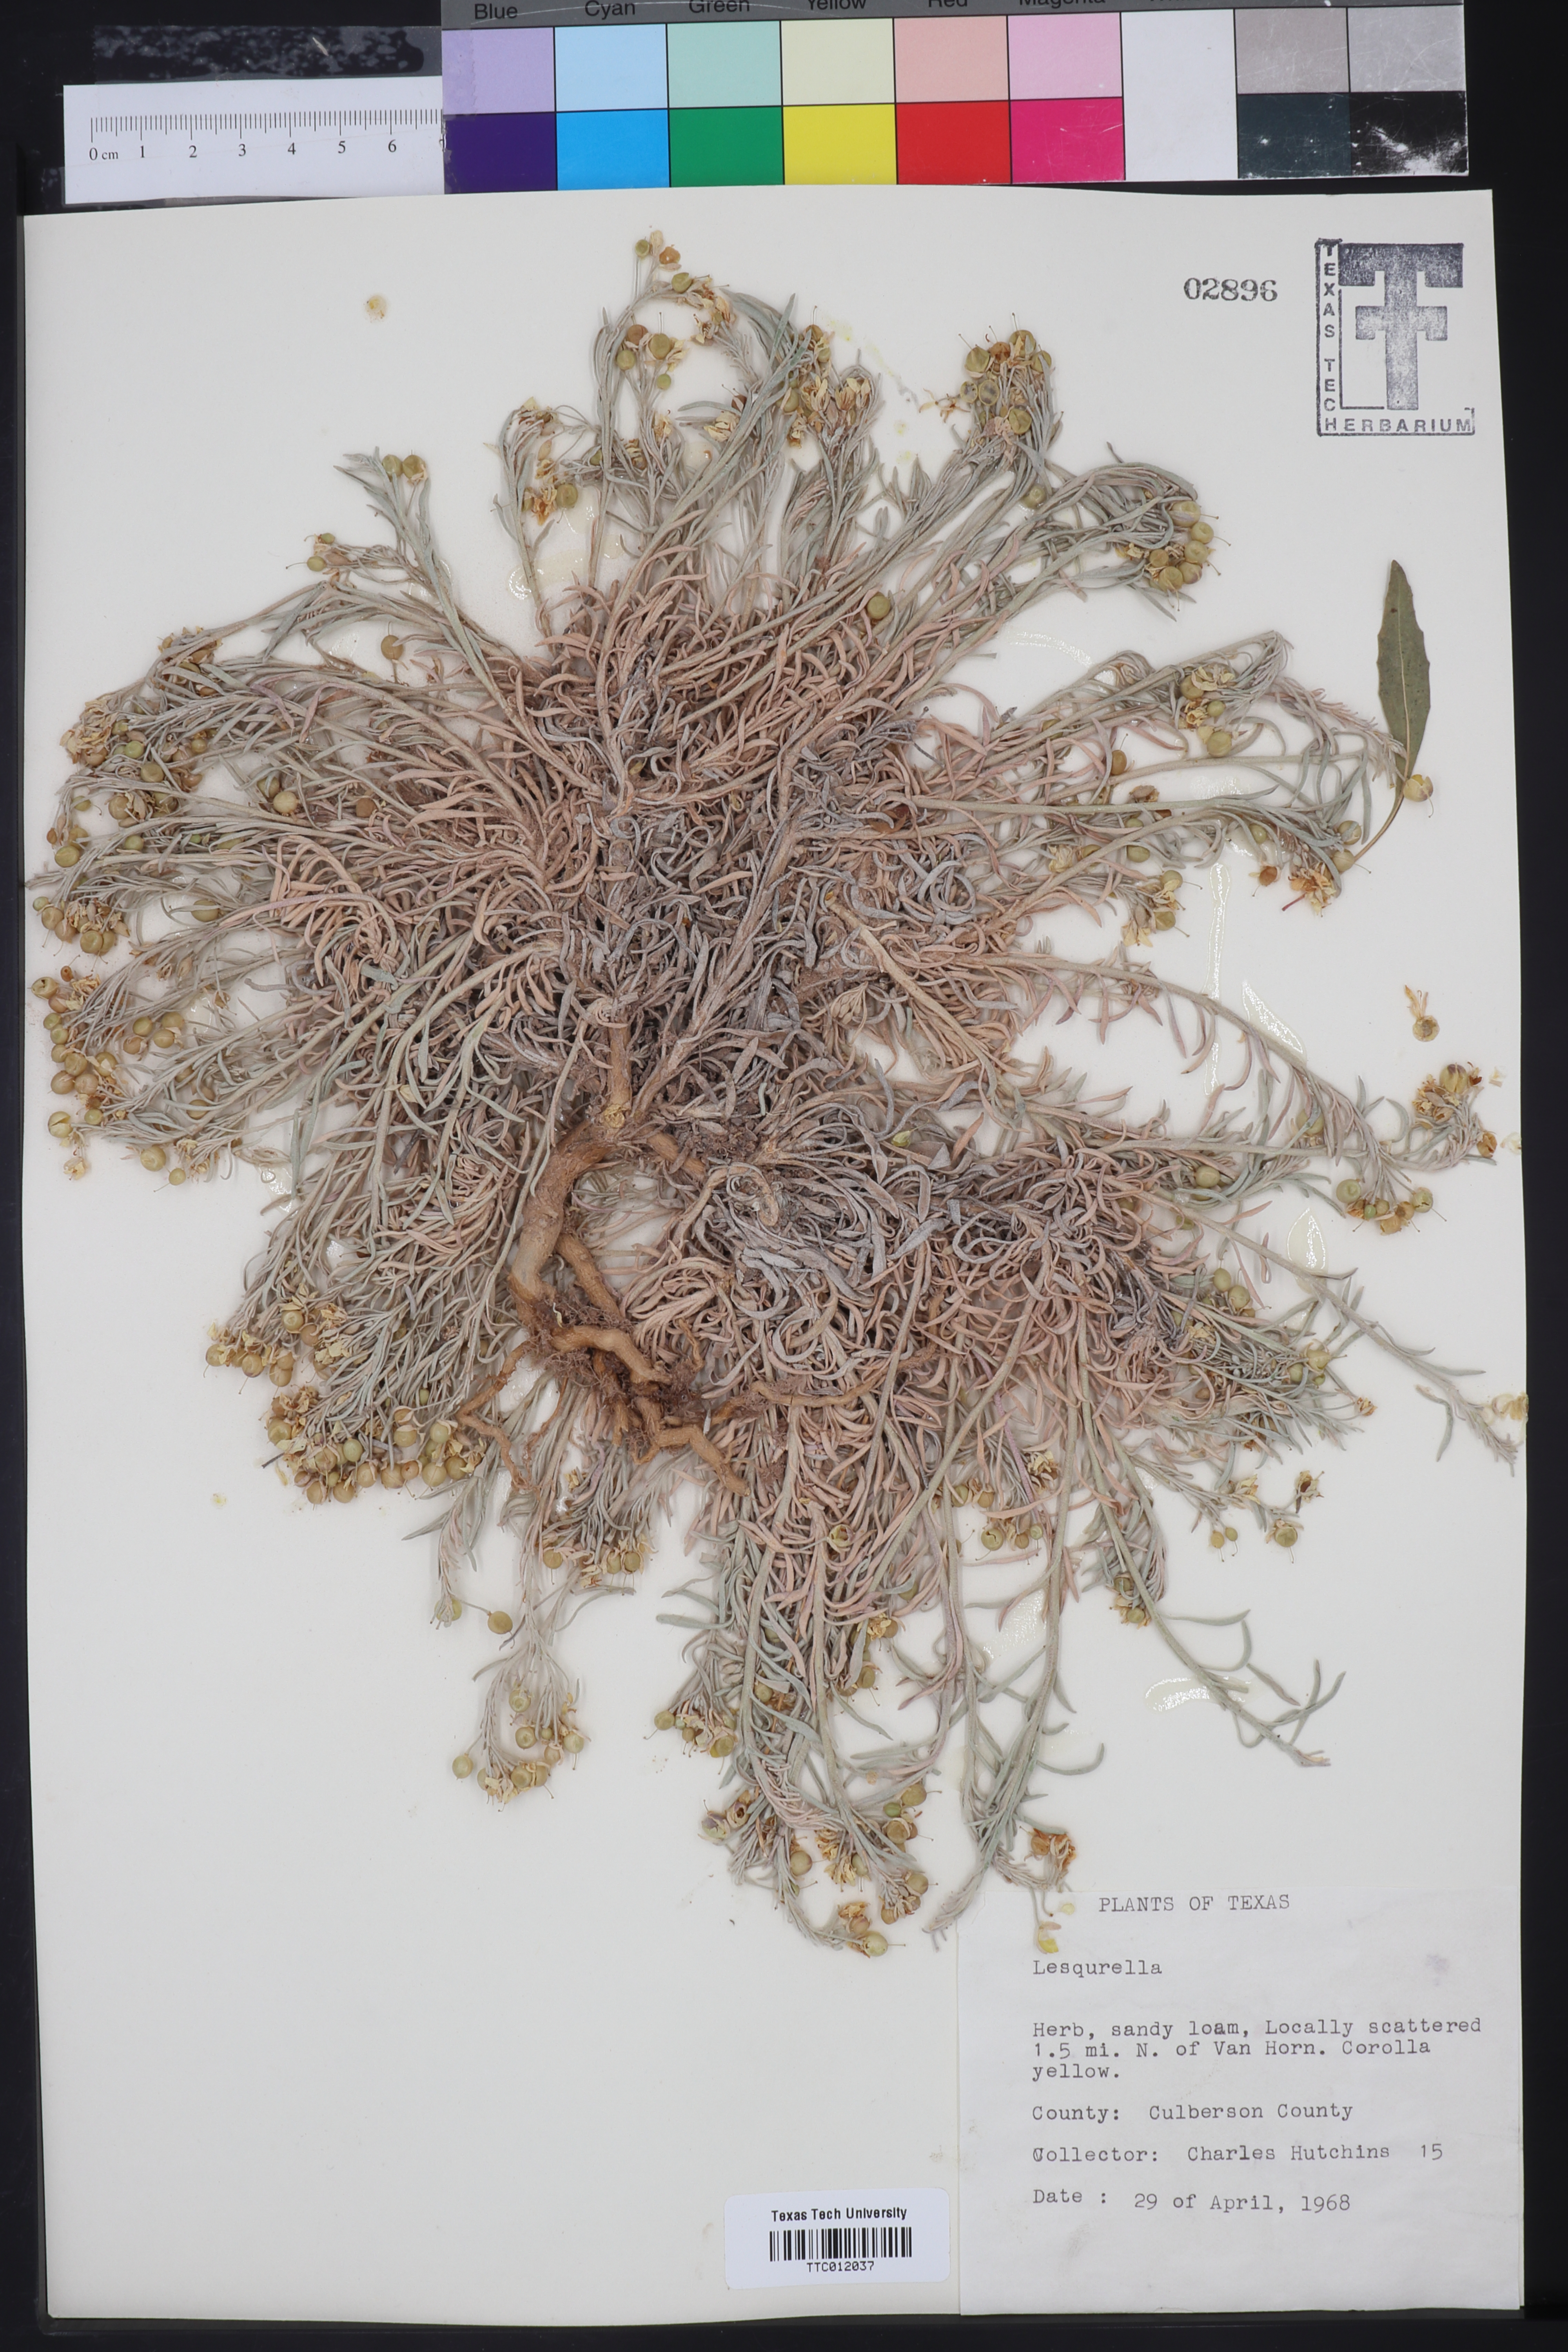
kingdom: Chromista
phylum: Cercozoa
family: Psammonobiotidae
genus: Lesquerella
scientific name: Lesquerella
